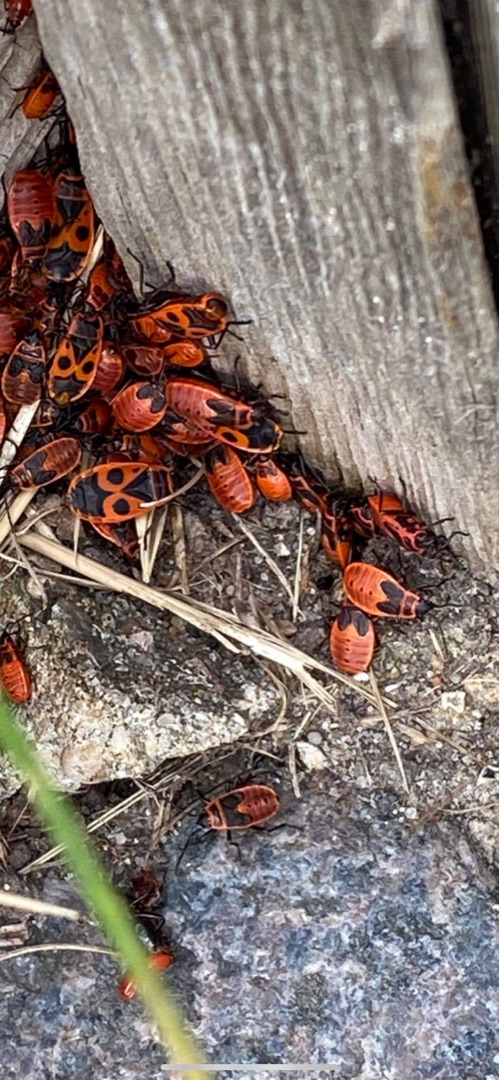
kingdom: Animalia
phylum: Arthropoda
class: Insecta
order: Hemiptera
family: Pyrrhocoridae
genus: Pyrrhocoris
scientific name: Pyrrhocoris apterus
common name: Ildtæge
